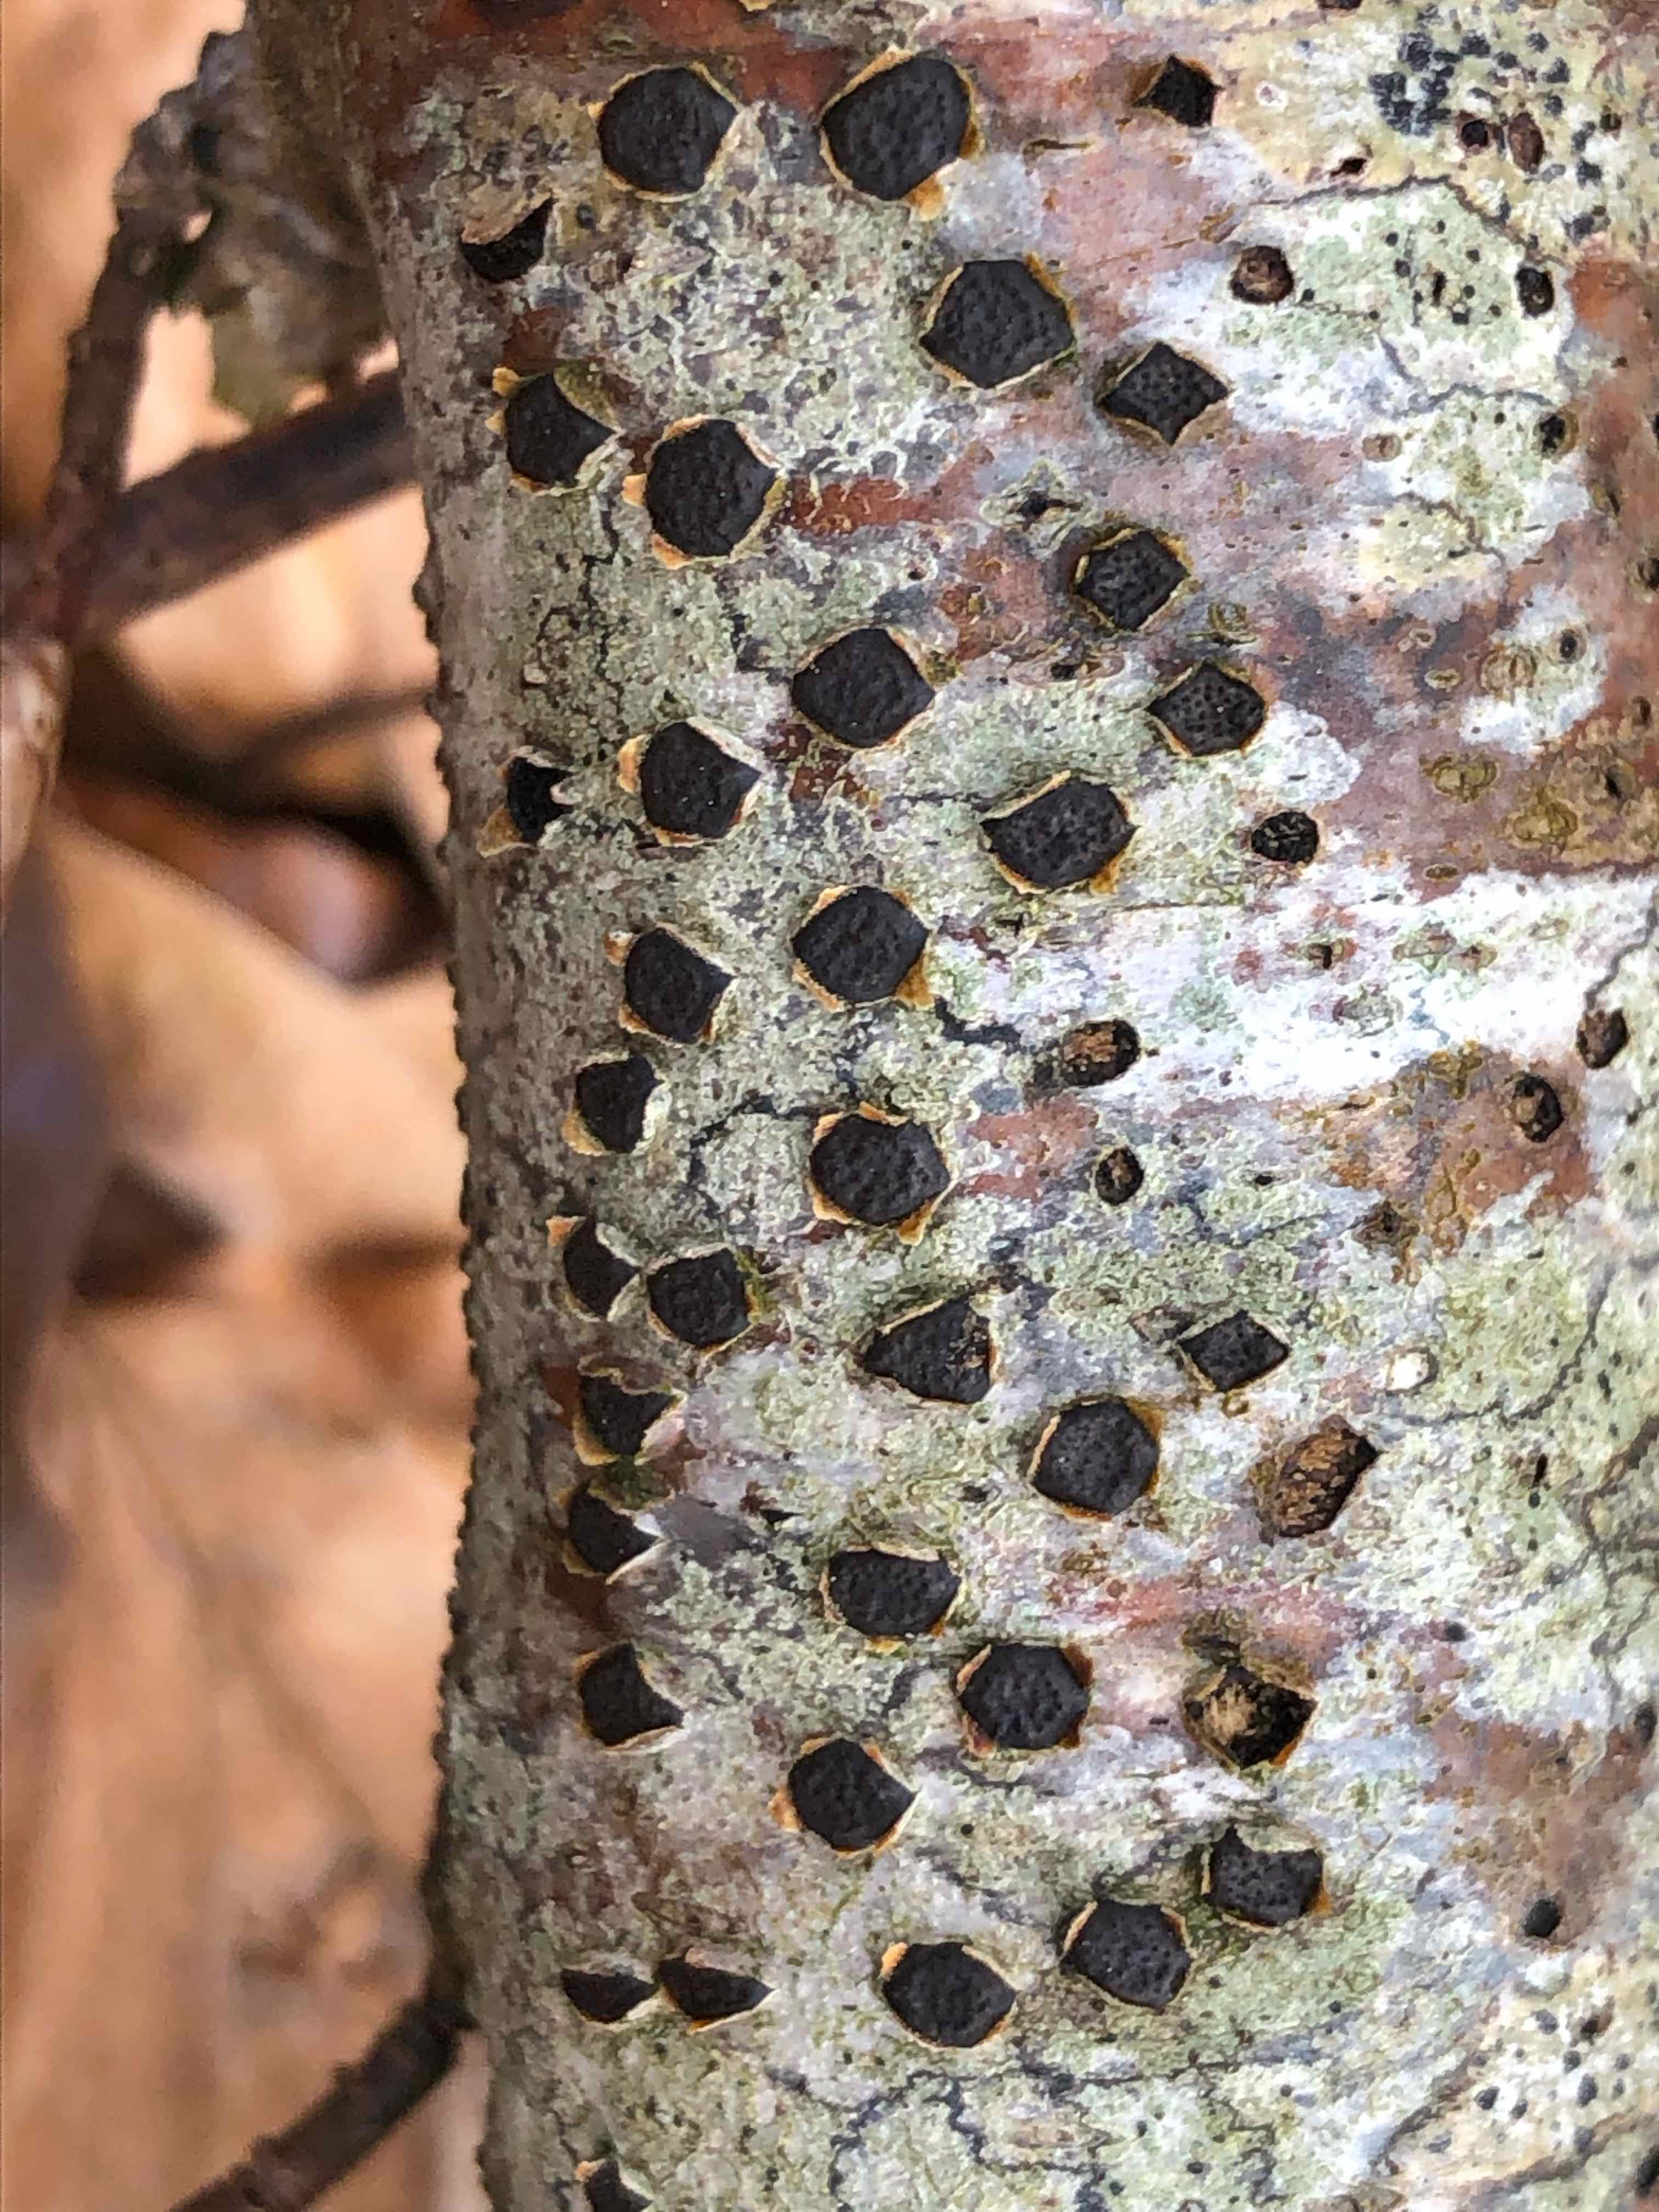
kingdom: Fungi
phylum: Ascomycota
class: Sordariomycetes
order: Xylariales
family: Diatrypaceae
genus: Diatrype
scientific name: Diatrype disciformis
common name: kant-kulskorpe
